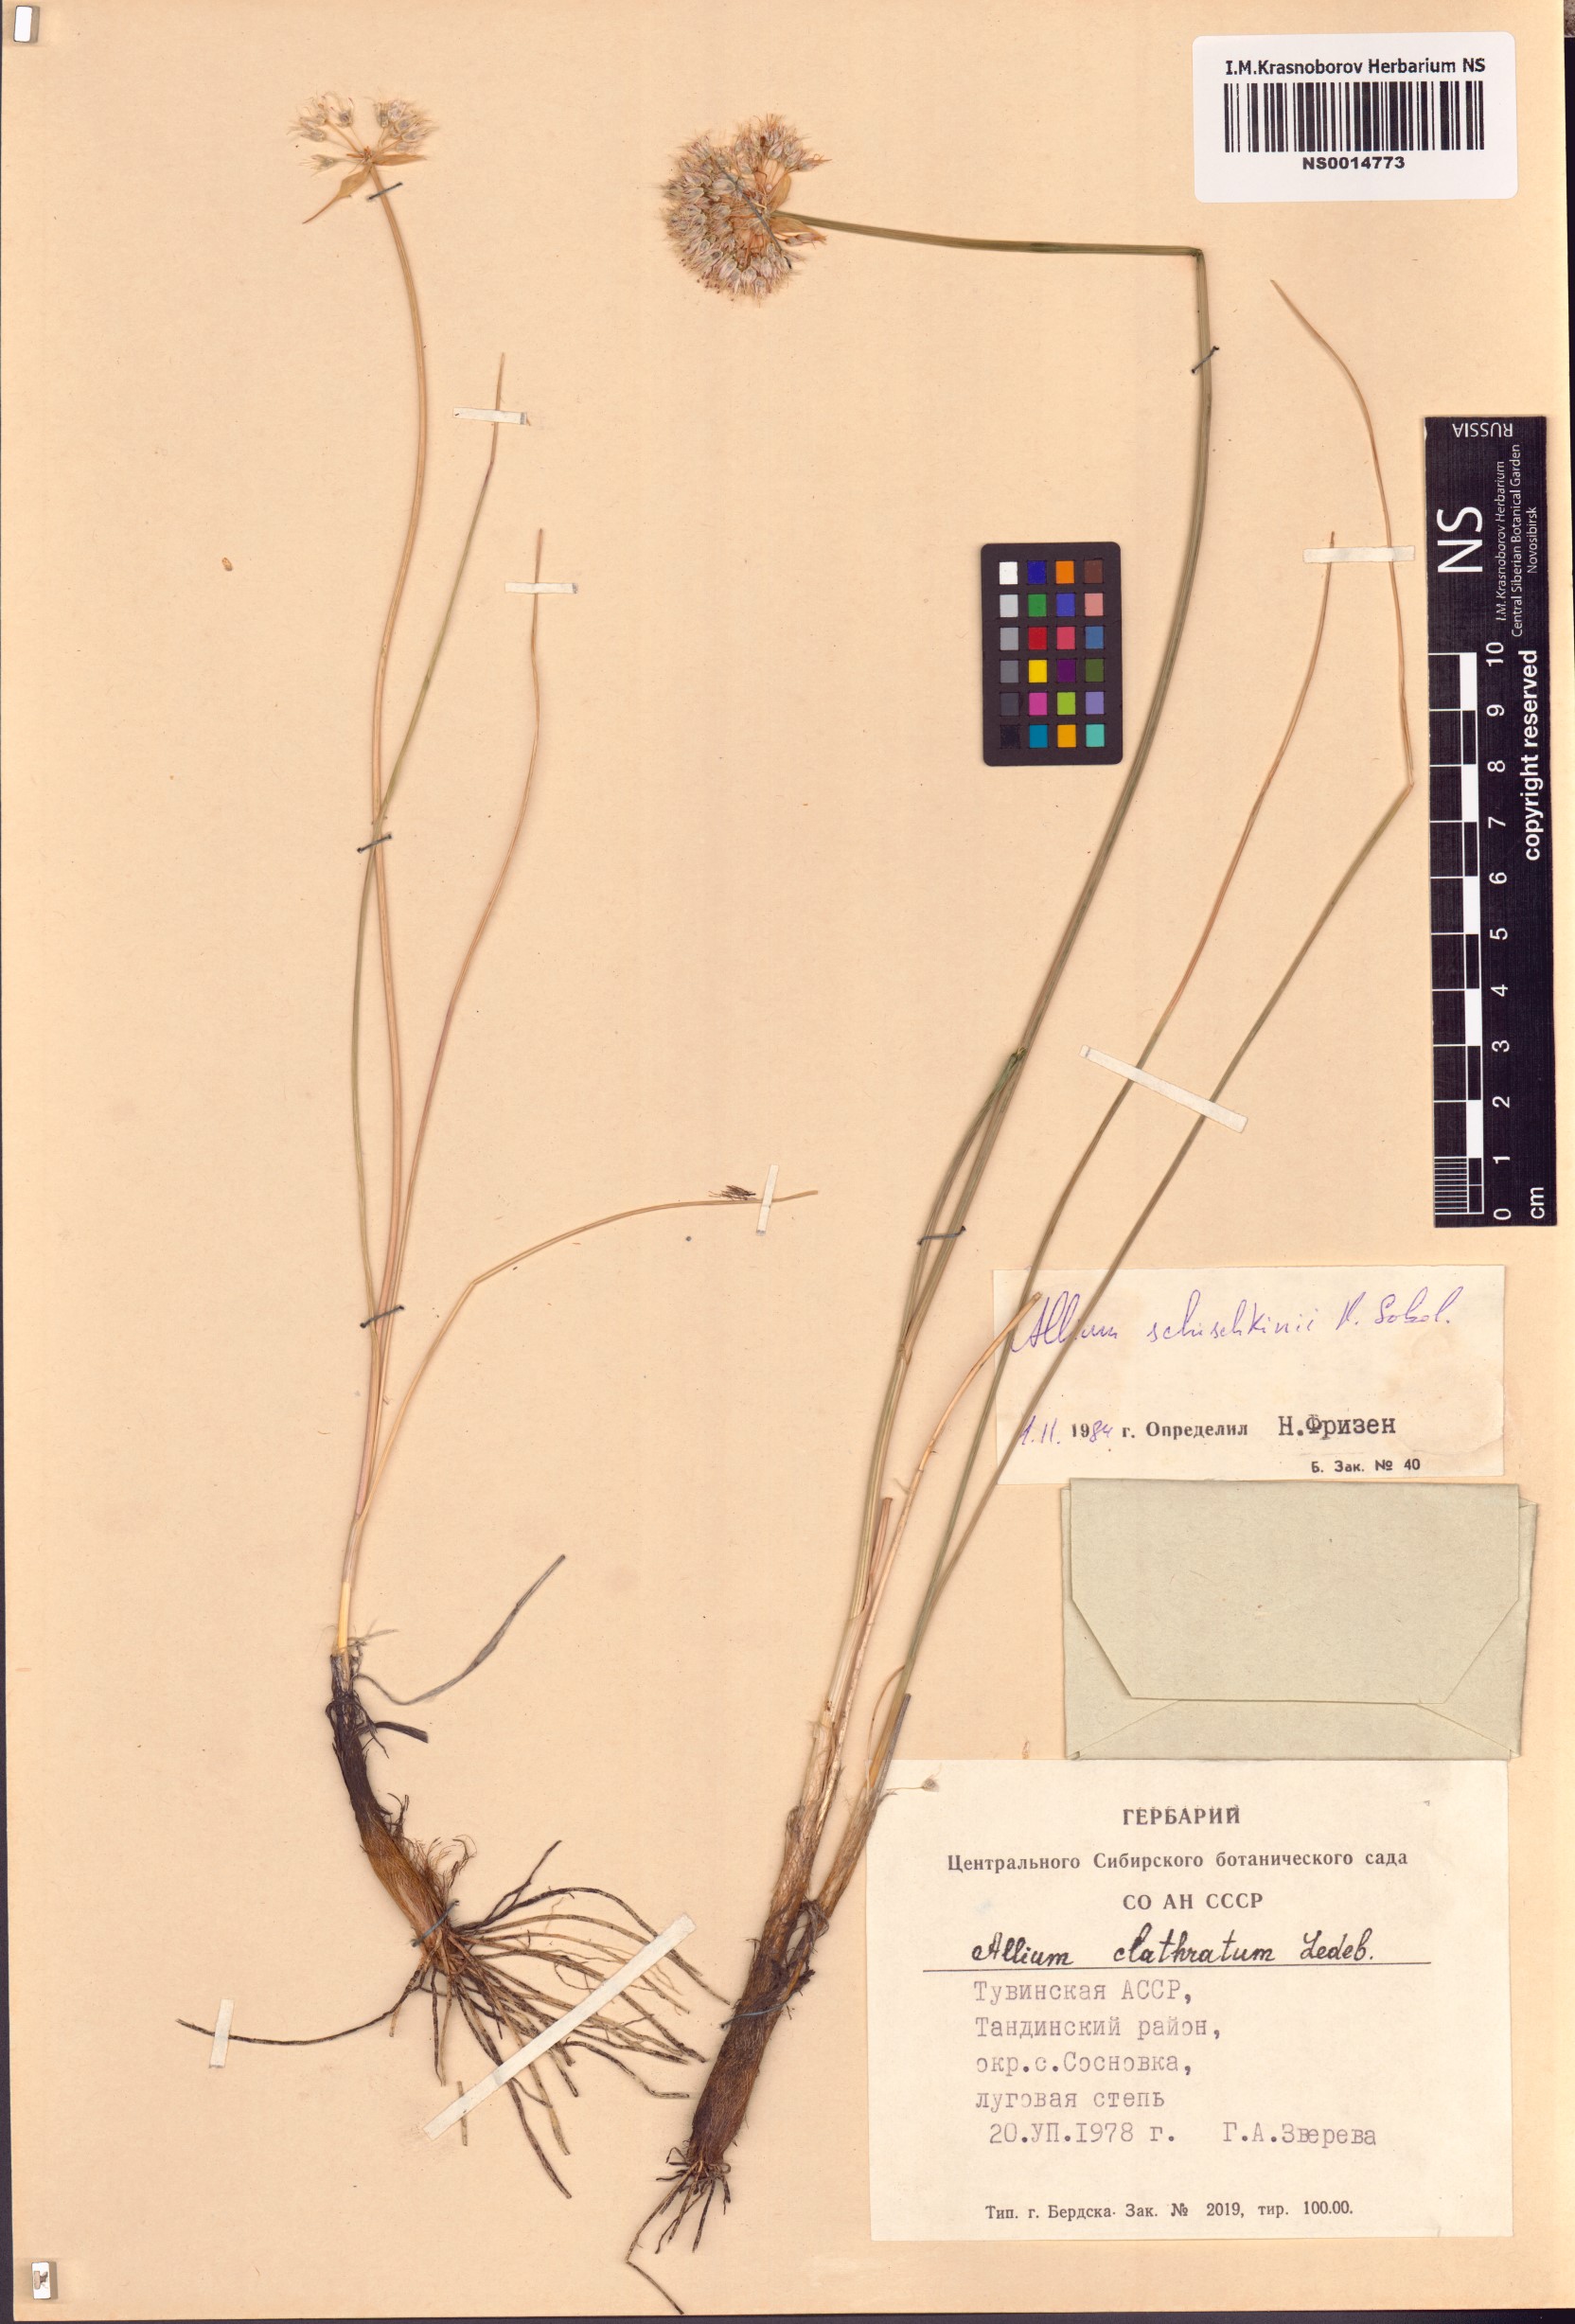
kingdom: Plantae
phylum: Tracheophyta
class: Liliopsida
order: Asparagales
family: Amaryllidaceae
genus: Allium
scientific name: Allium schischkinii
